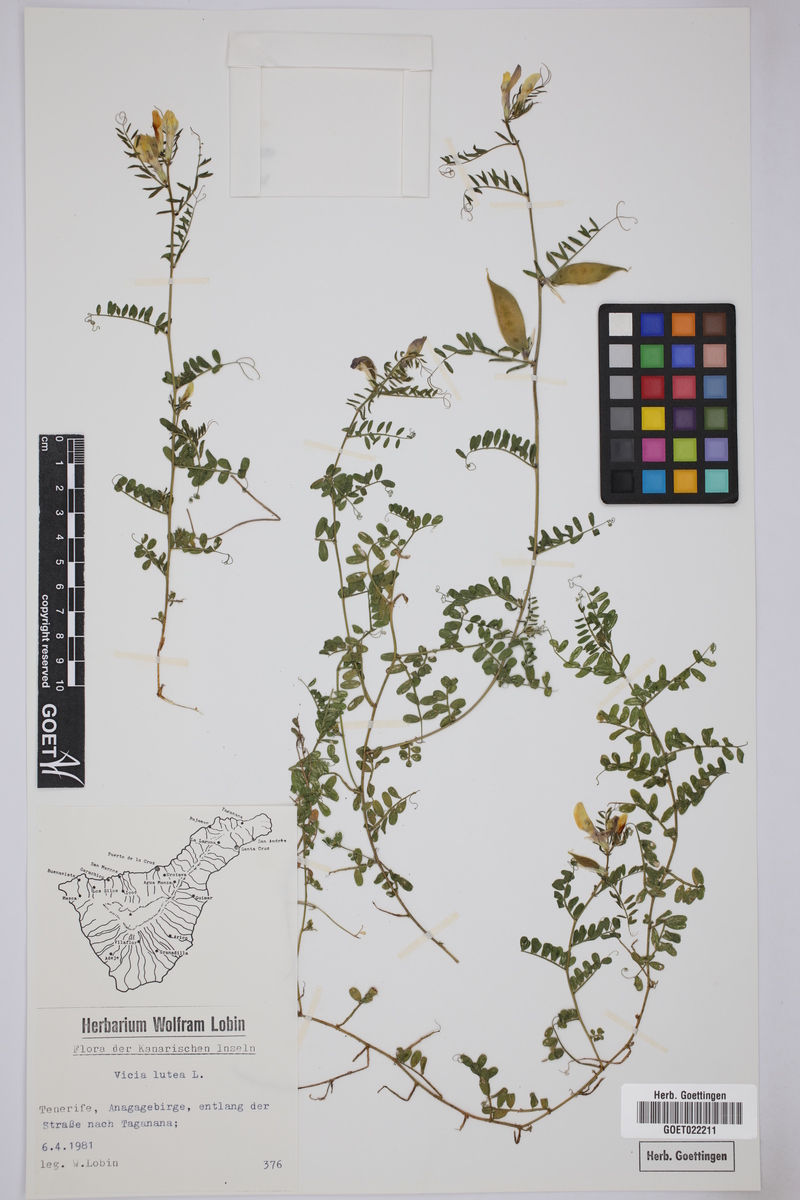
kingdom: Plantae
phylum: Tracheophyta
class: Magnoliopsida
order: Fabales
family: Fabaceae
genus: Vicia
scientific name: Vicia lutea
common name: Smooth yellow vetch
